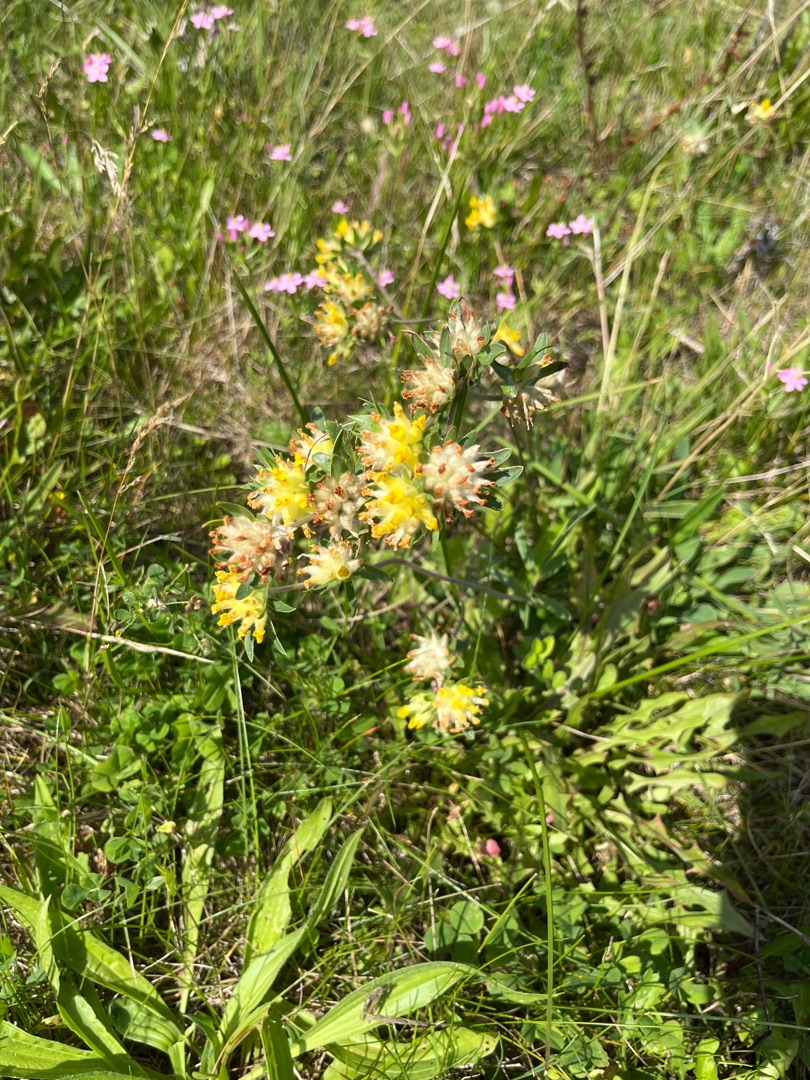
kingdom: Plantae
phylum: Tracheophyta
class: Magnoliopsida
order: Fabales
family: Fabaceae
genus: Anthyllis
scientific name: Anthyllis vulneraria
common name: Rundbælg
